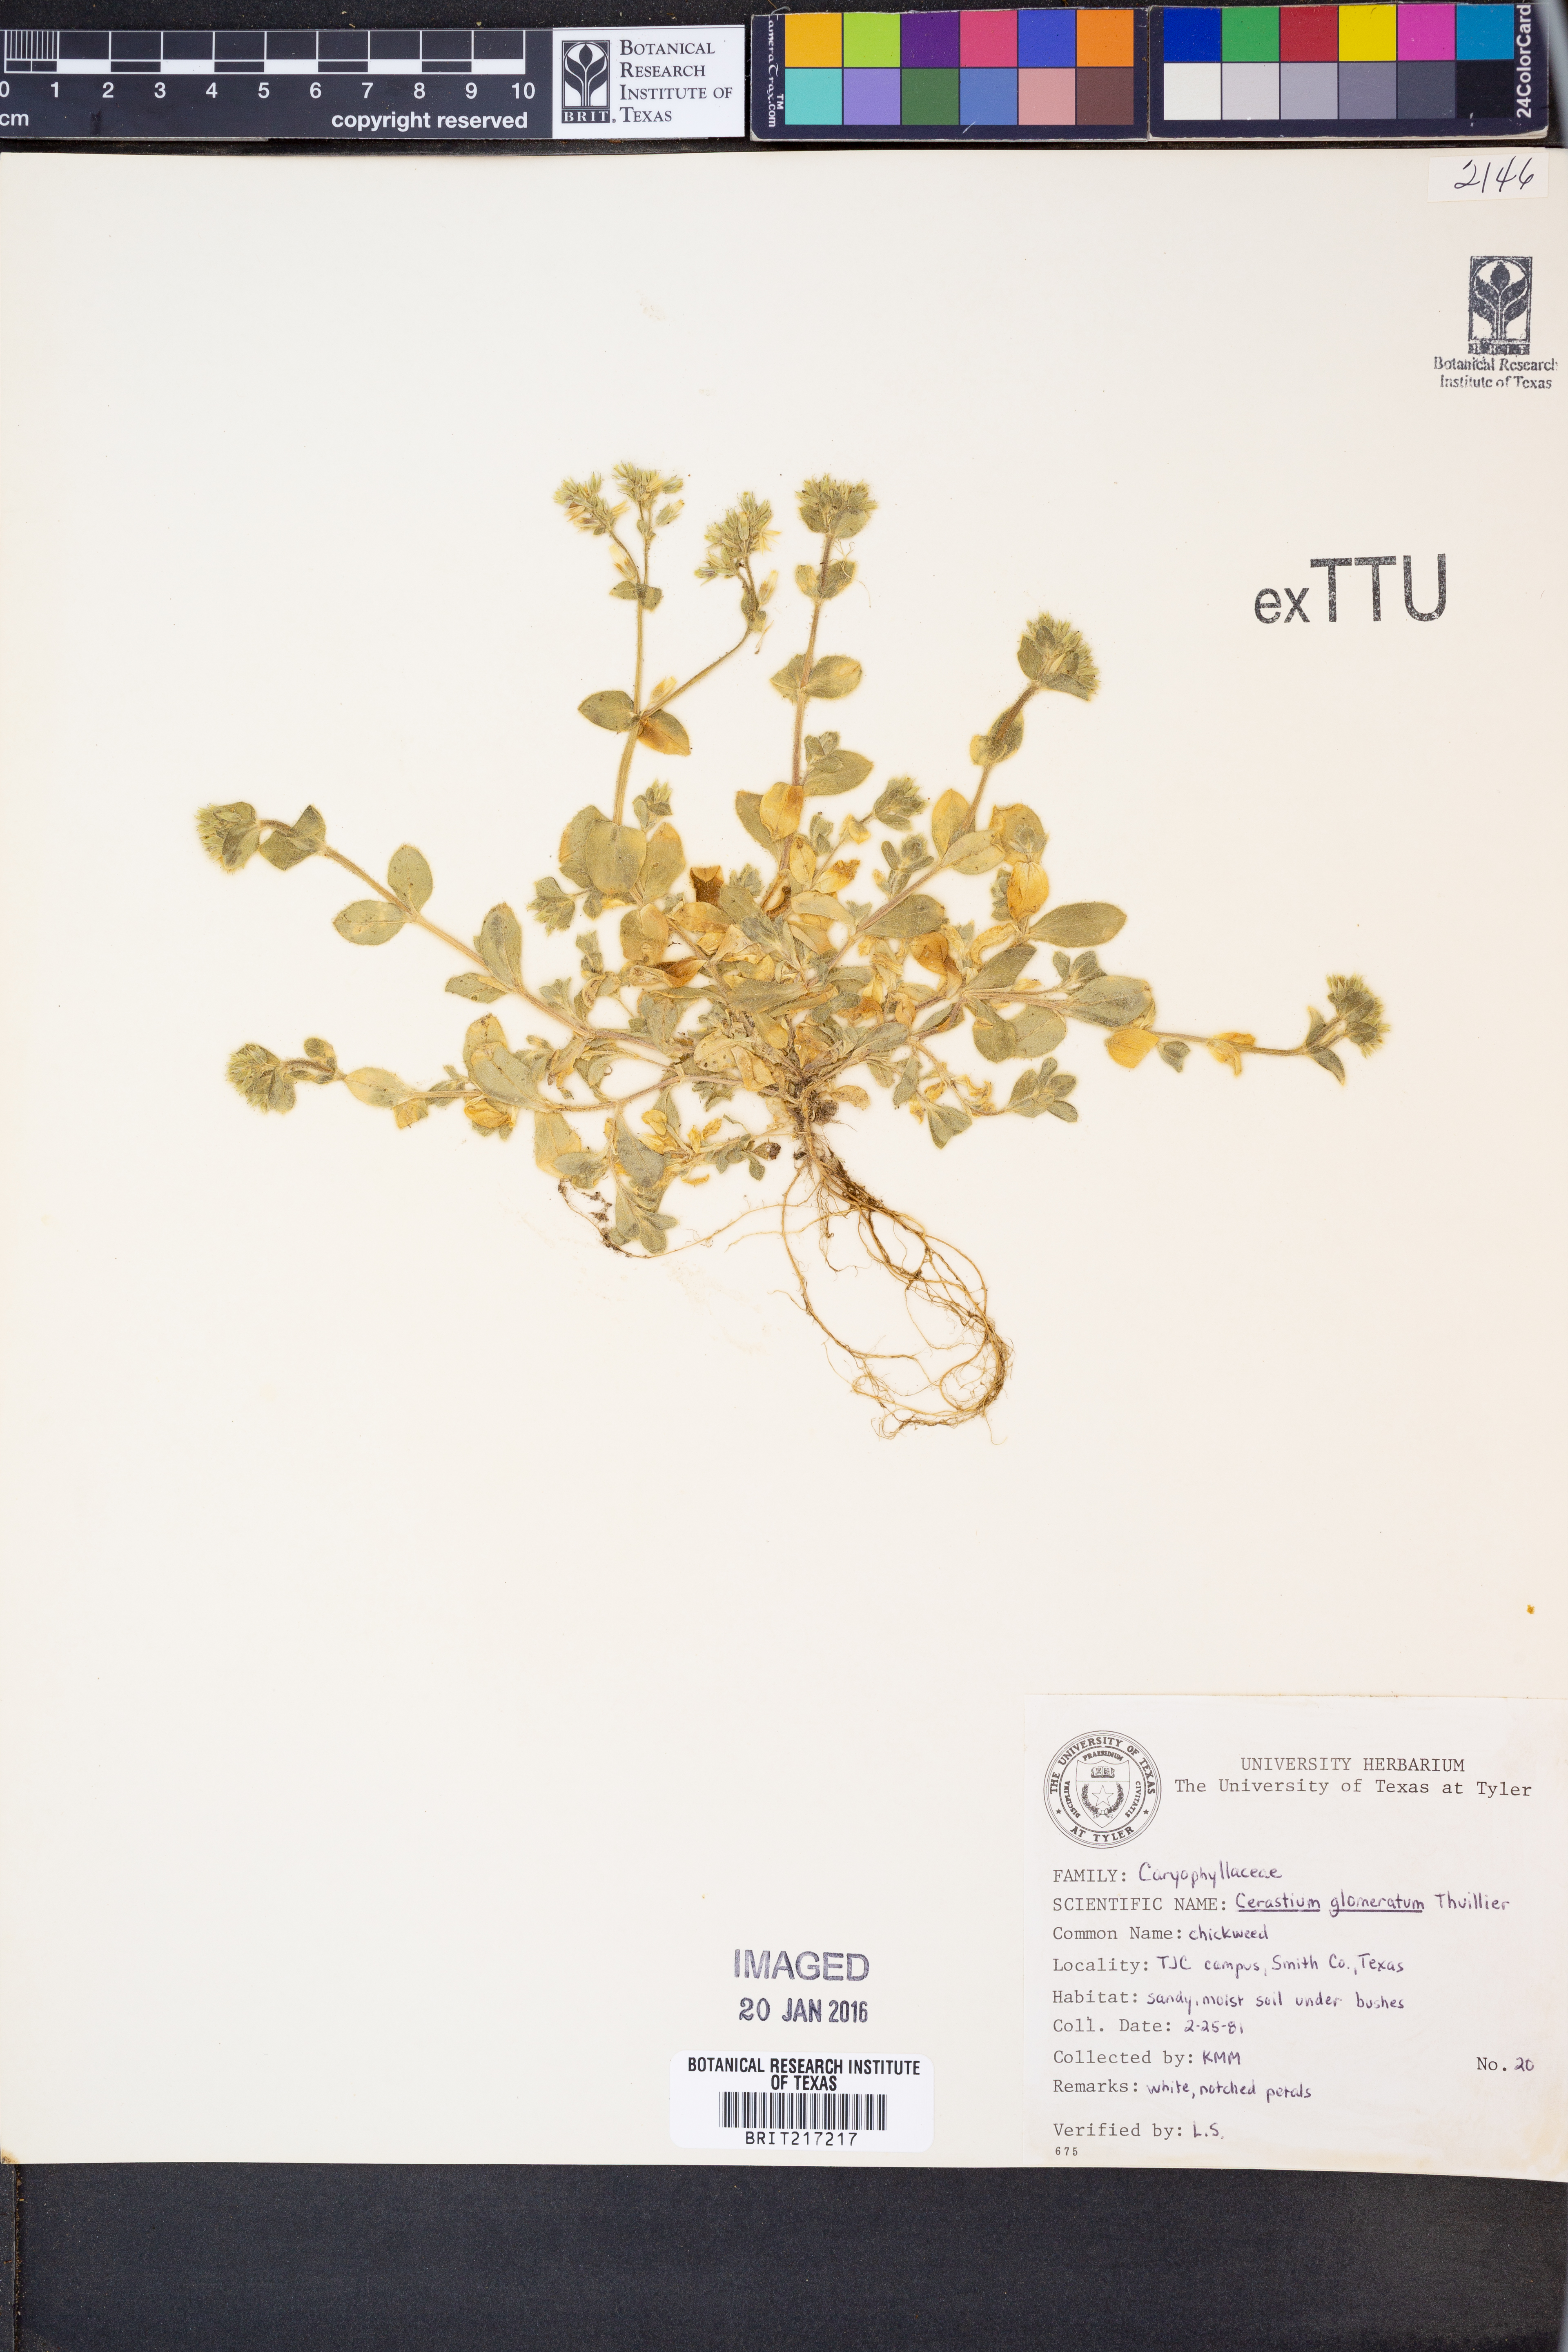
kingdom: Plantae
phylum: Tracheophyta
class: Magnoliopsida
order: Caryophyllales
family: Caryophyllaceae
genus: Cerastium
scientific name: Cerastium glomeratum
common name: Sticky chickweed
